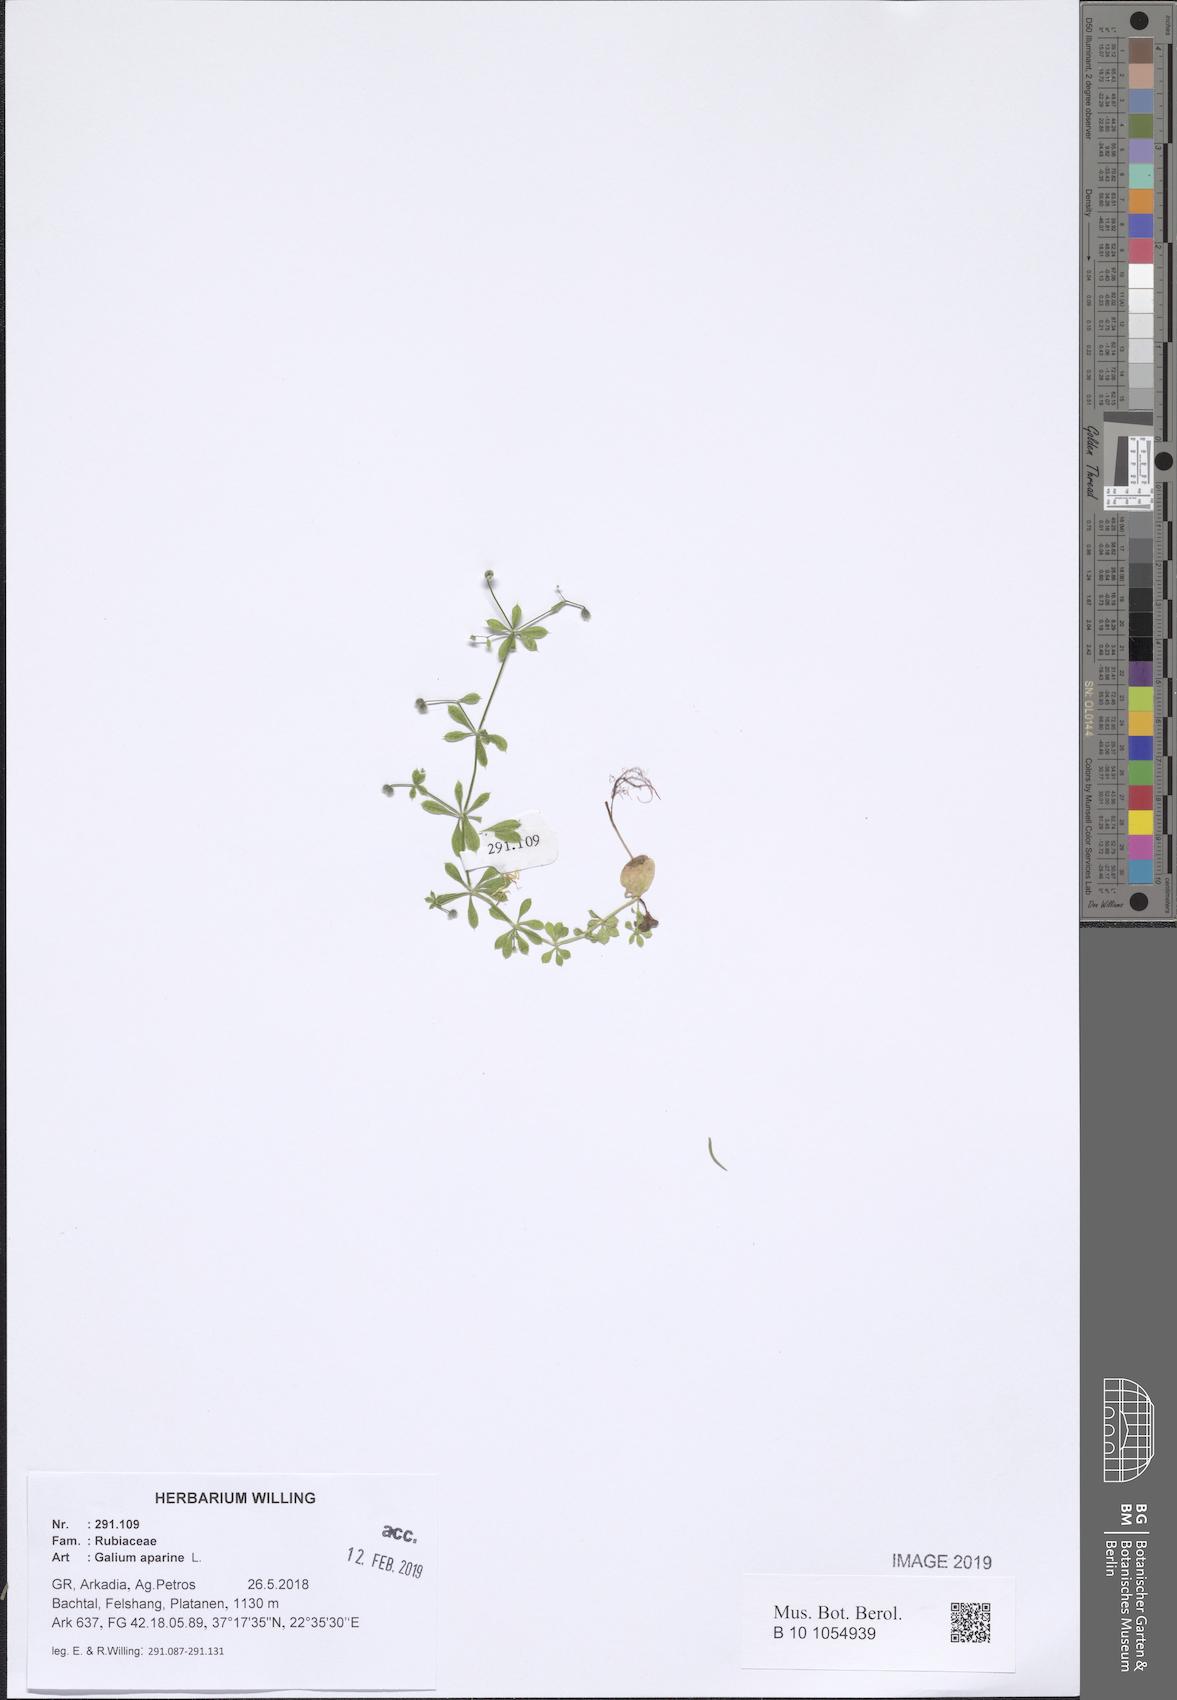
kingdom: Plantae
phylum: Tracheophyta
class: Magnoliopsida
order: Gentianales
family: Rubiaceae
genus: Galium
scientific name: Galium aparine
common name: Cleavers
